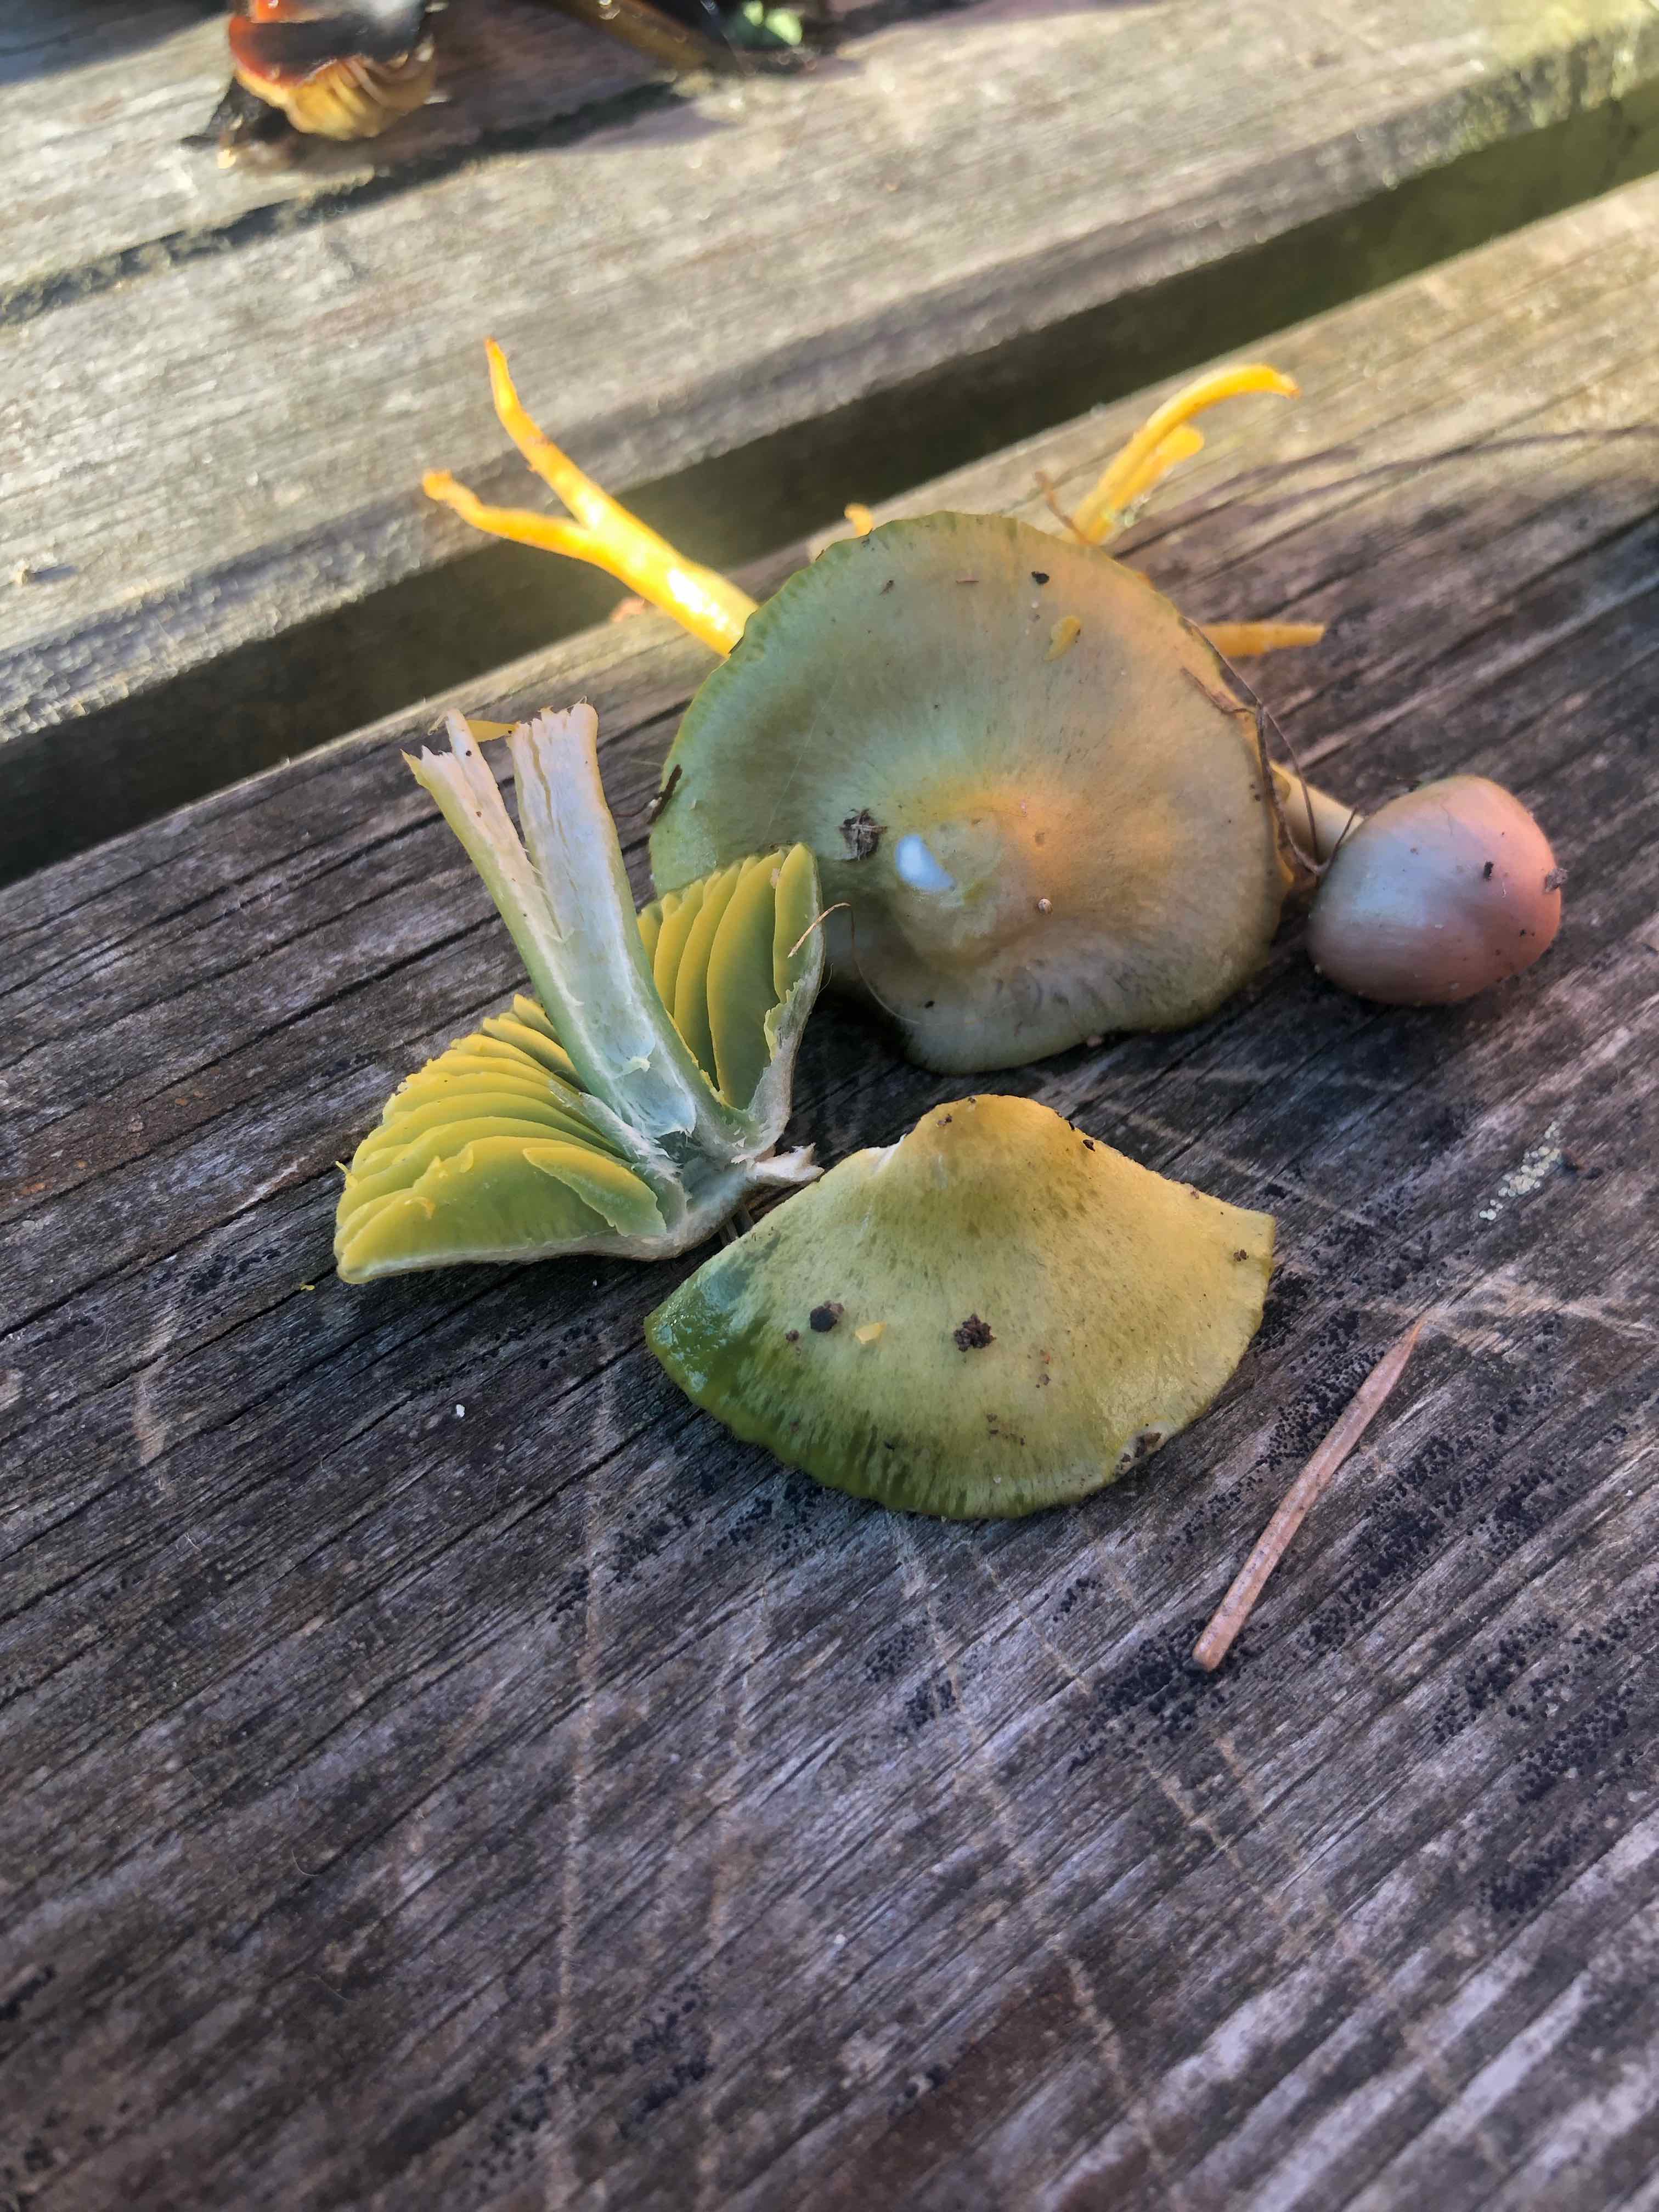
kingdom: Fungi
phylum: Basidiomycota
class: Agaricomycetes
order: Agaricales
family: Hygrophoraceae
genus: Gliophorus
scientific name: Gliophorus psittacinus
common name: papegøje-vokshat
